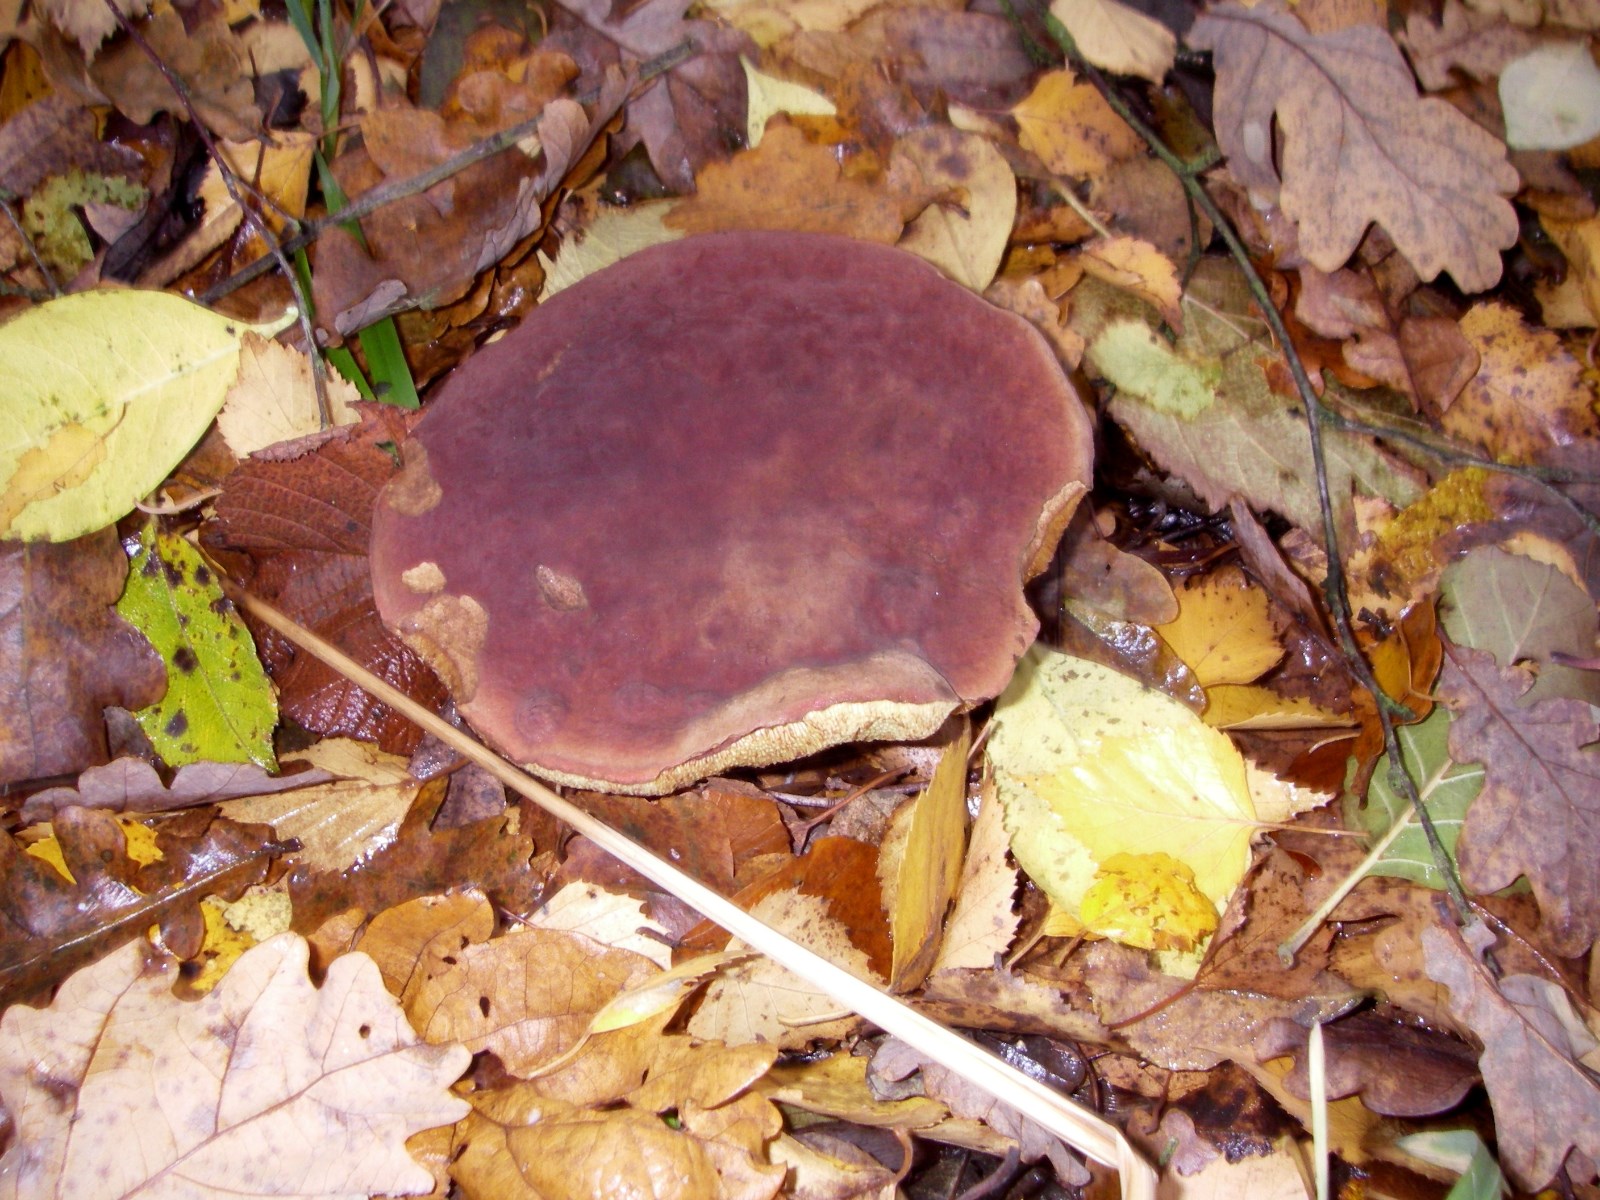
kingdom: Fungi
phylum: Basidiomycota
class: Agaricomycetes
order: Boletales
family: Boletaceae
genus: Xerocomellus
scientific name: Xerocomellus pruinatus
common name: dugget rørhat
